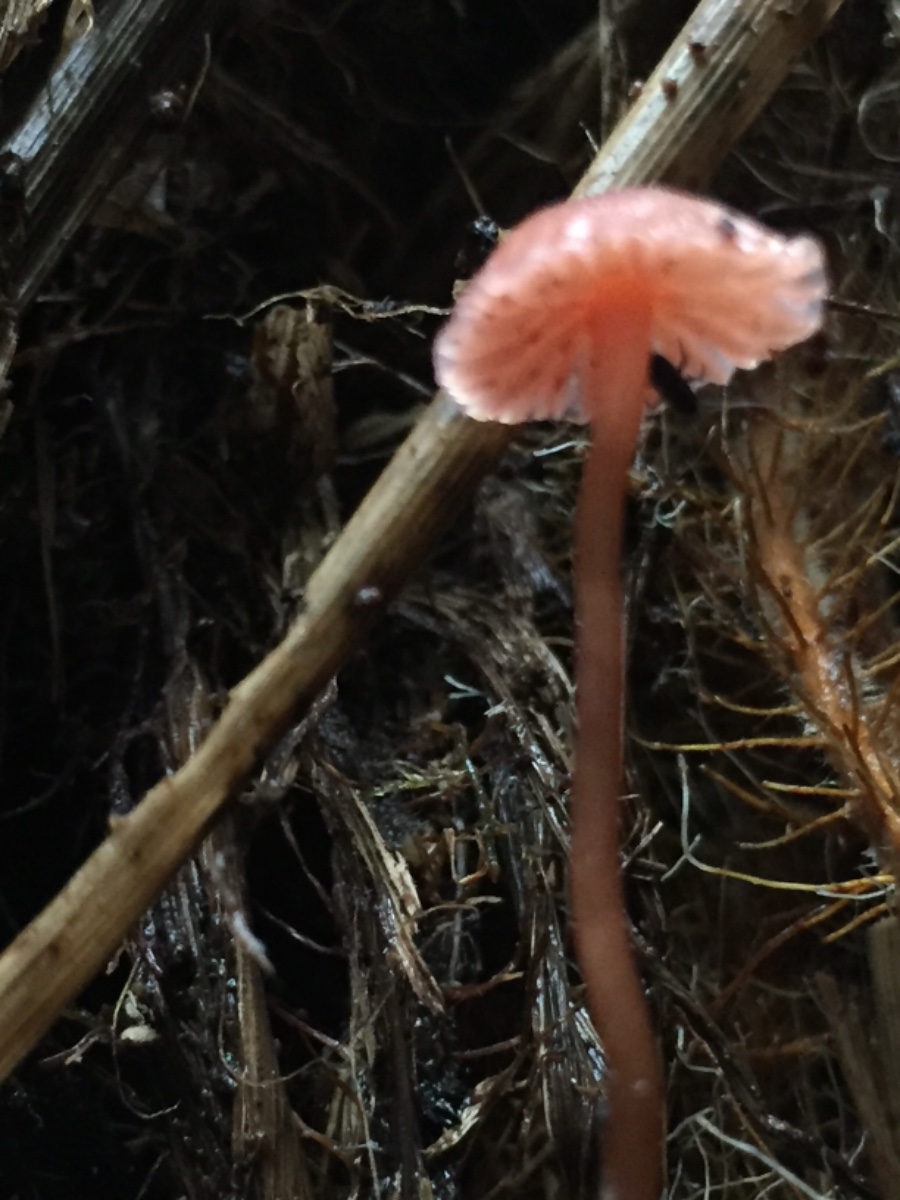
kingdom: Fungi
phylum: Basidiomycota
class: Agaricomycetes
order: Agaricales
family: Hydnangiaceae
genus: Laccaria
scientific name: Laccaria
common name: ametysthat
